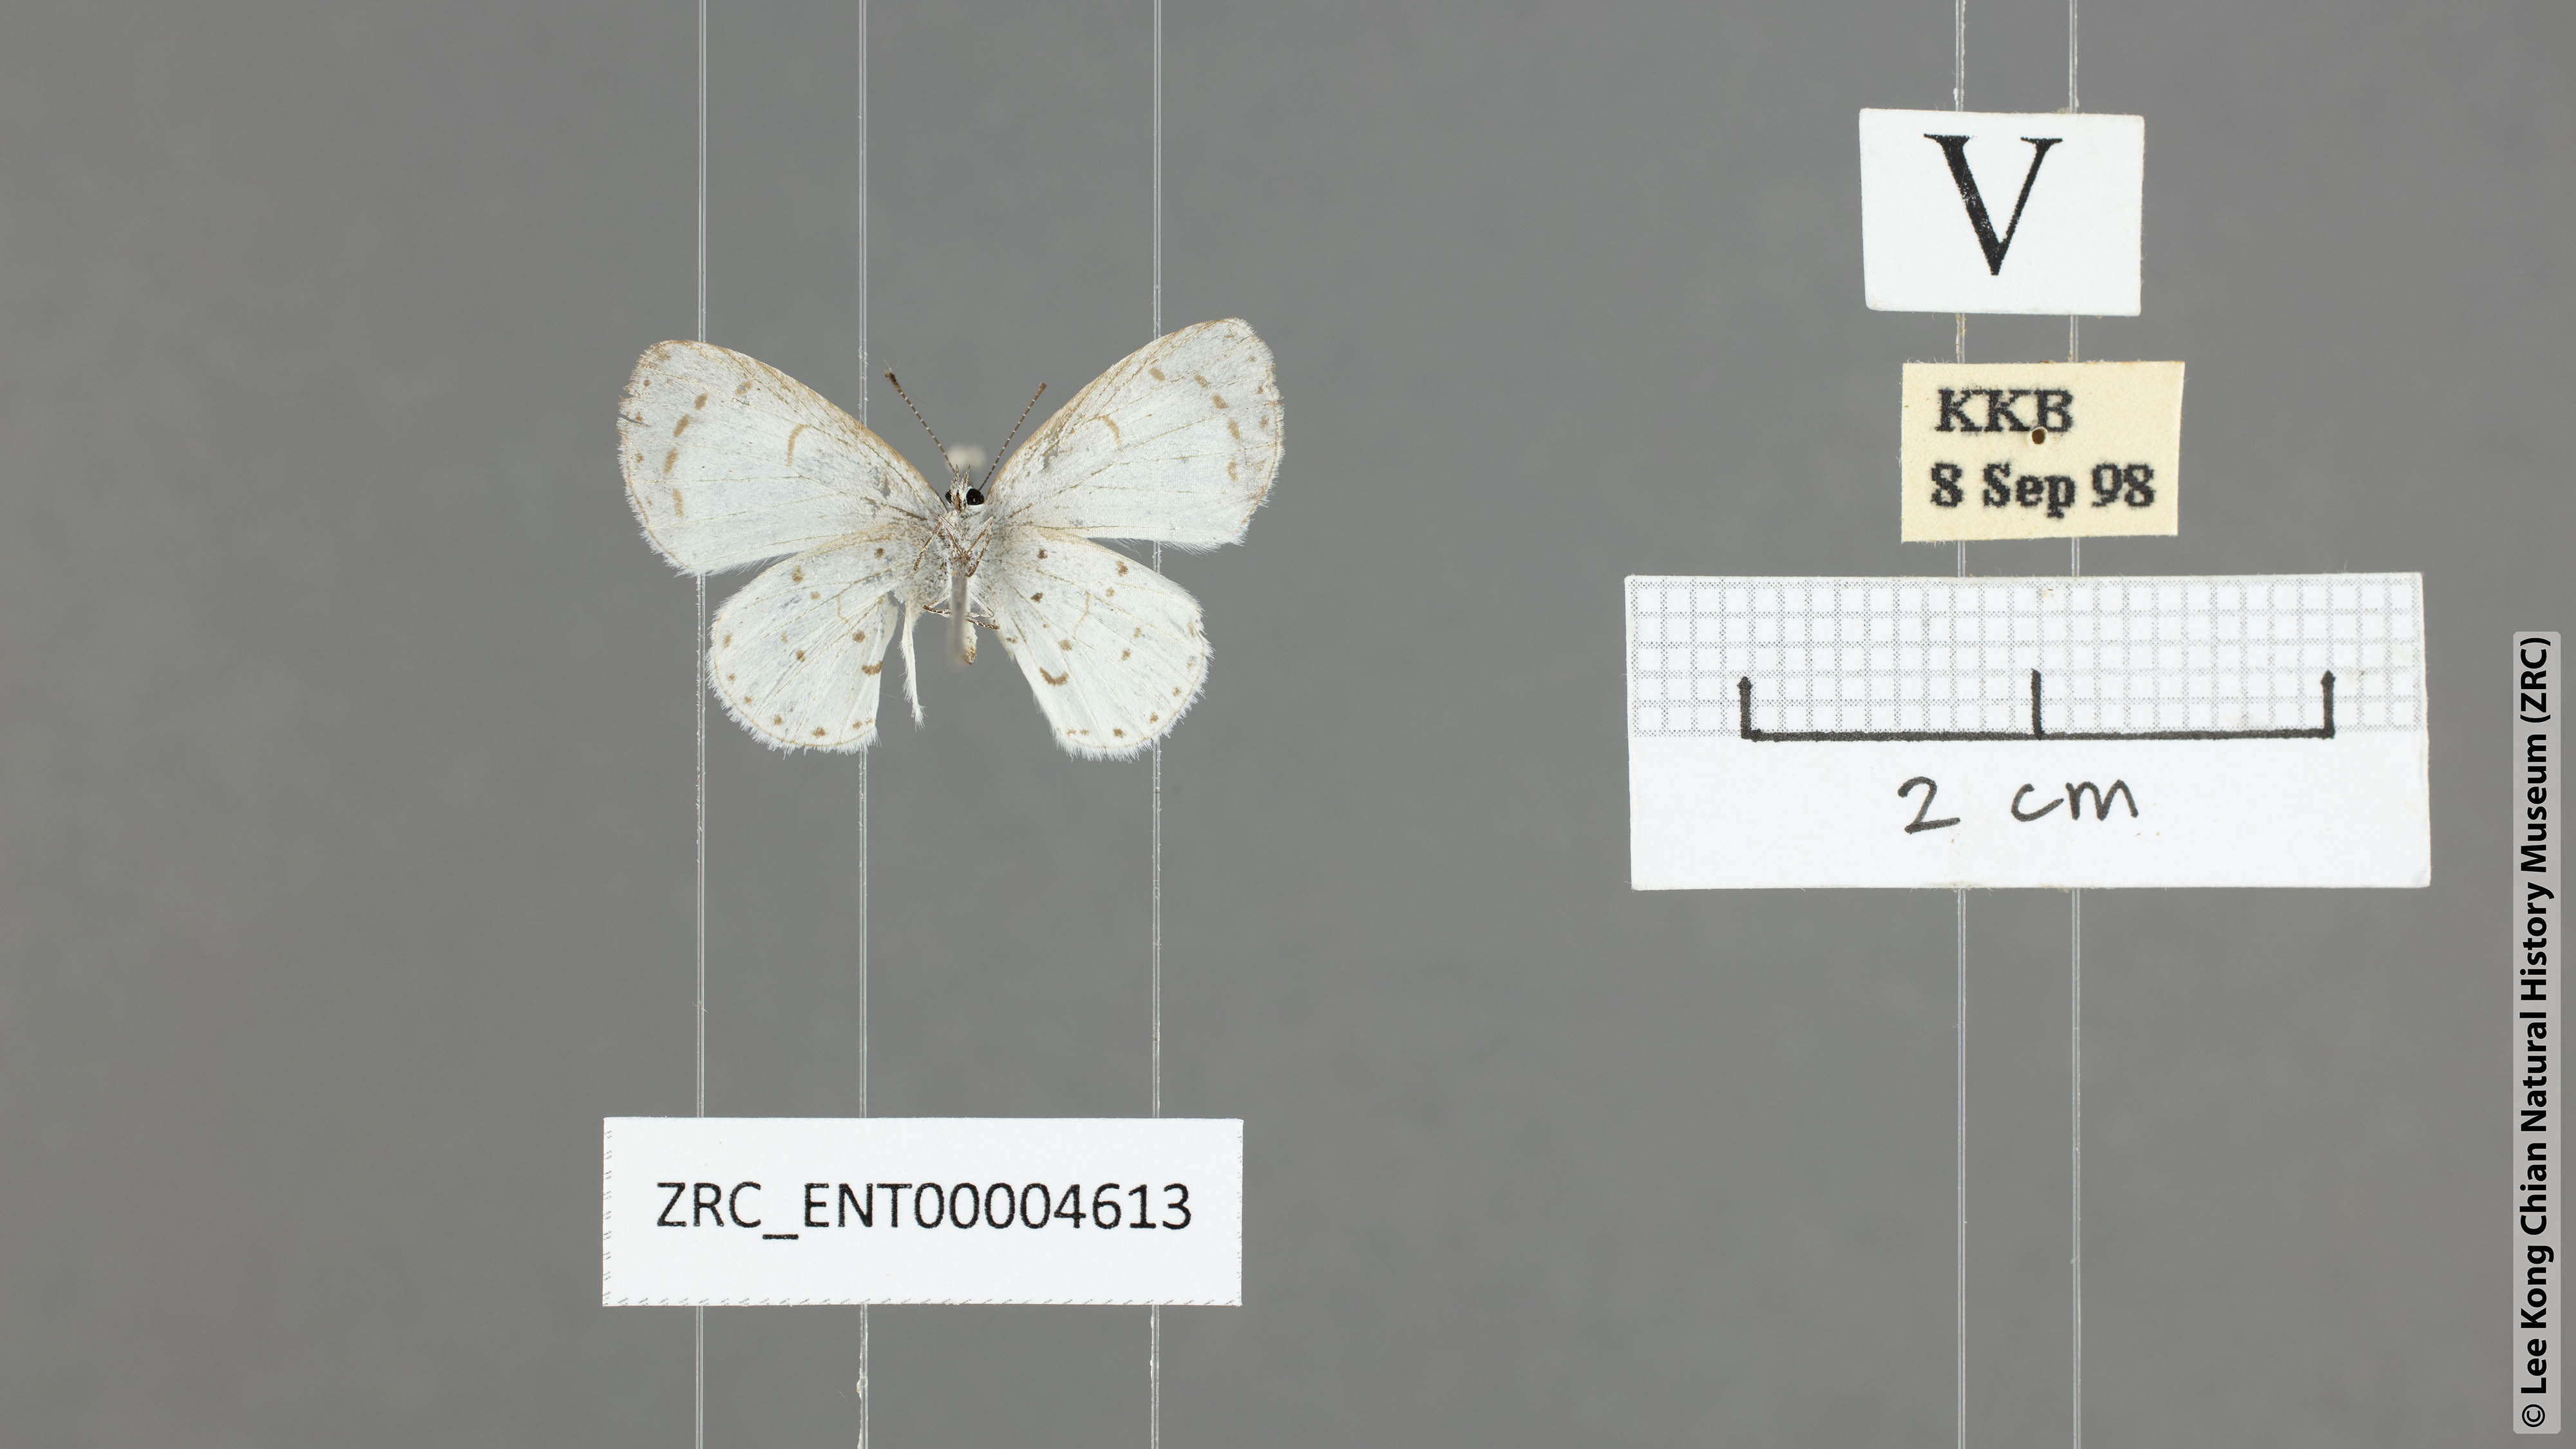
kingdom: Animalia
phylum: Arthropoda
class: Insecta
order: Lepidoptera
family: Lycaenidae
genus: Udara
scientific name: Udara akasa
